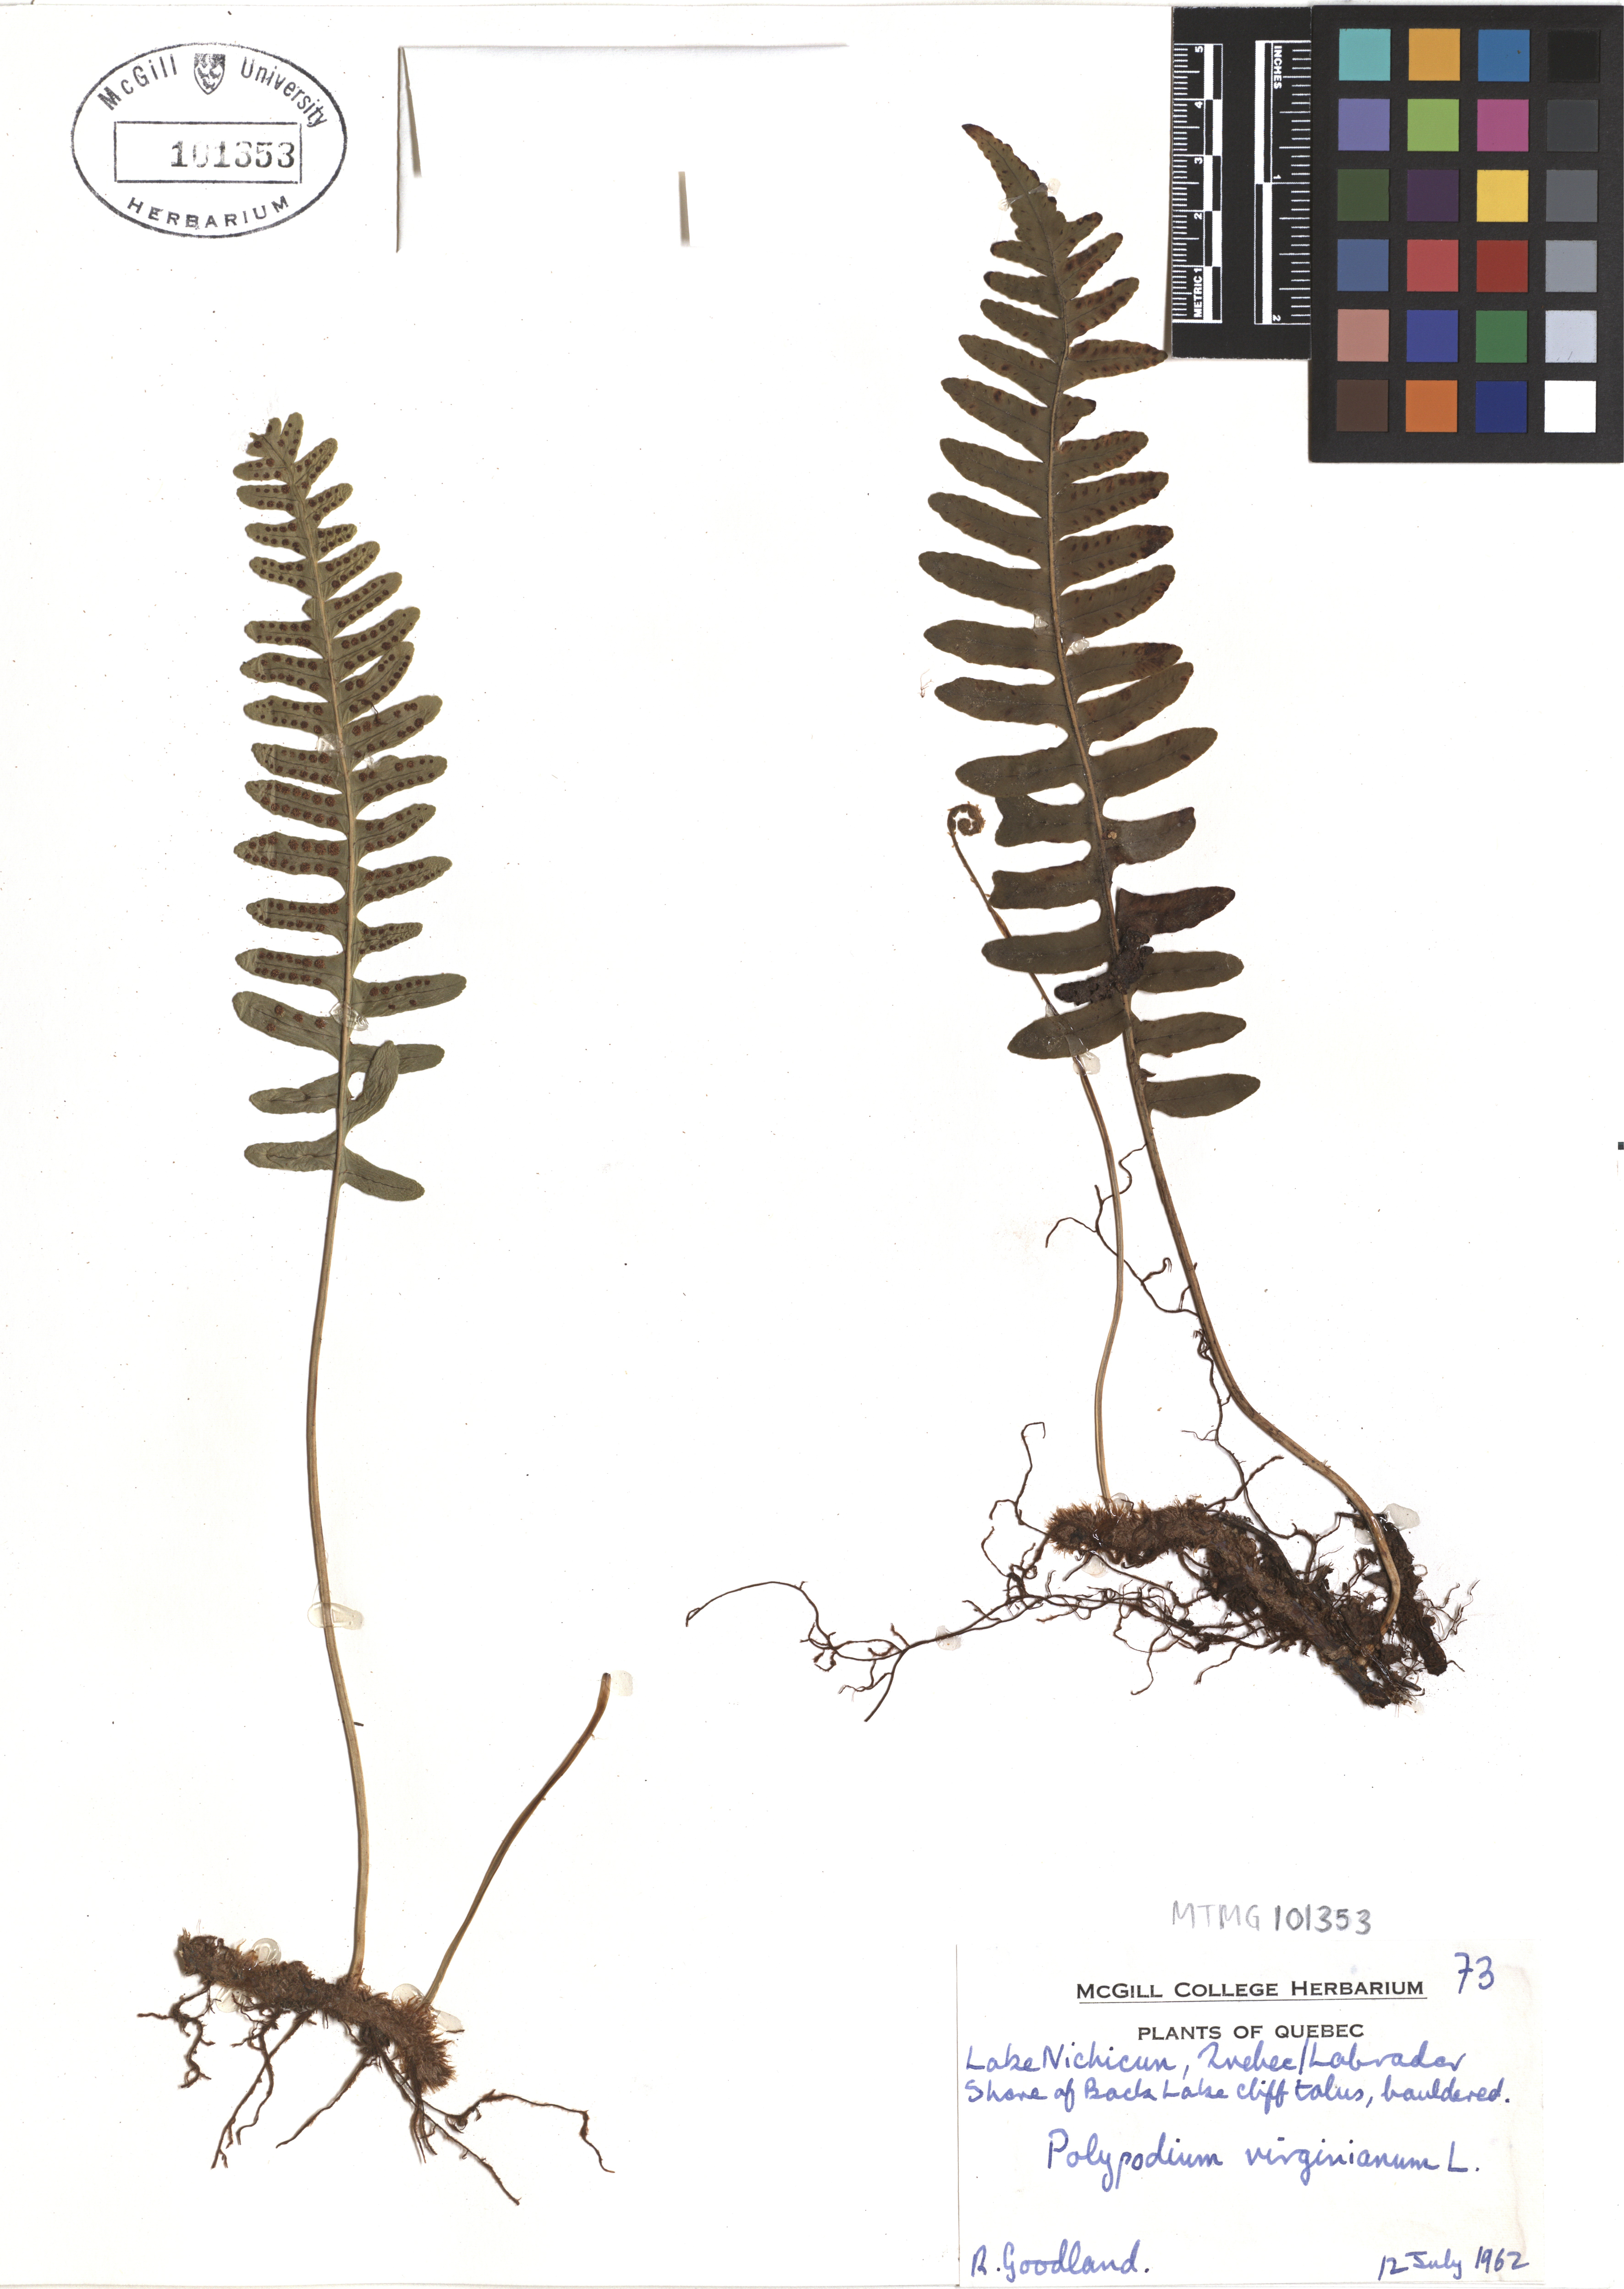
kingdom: Plantae
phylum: Tracheophyta
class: Polypodiopsida
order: Polypodiales
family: Polypodiaceae
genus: Polypodium
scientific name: Polypodium virginianum
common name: American wall fern
